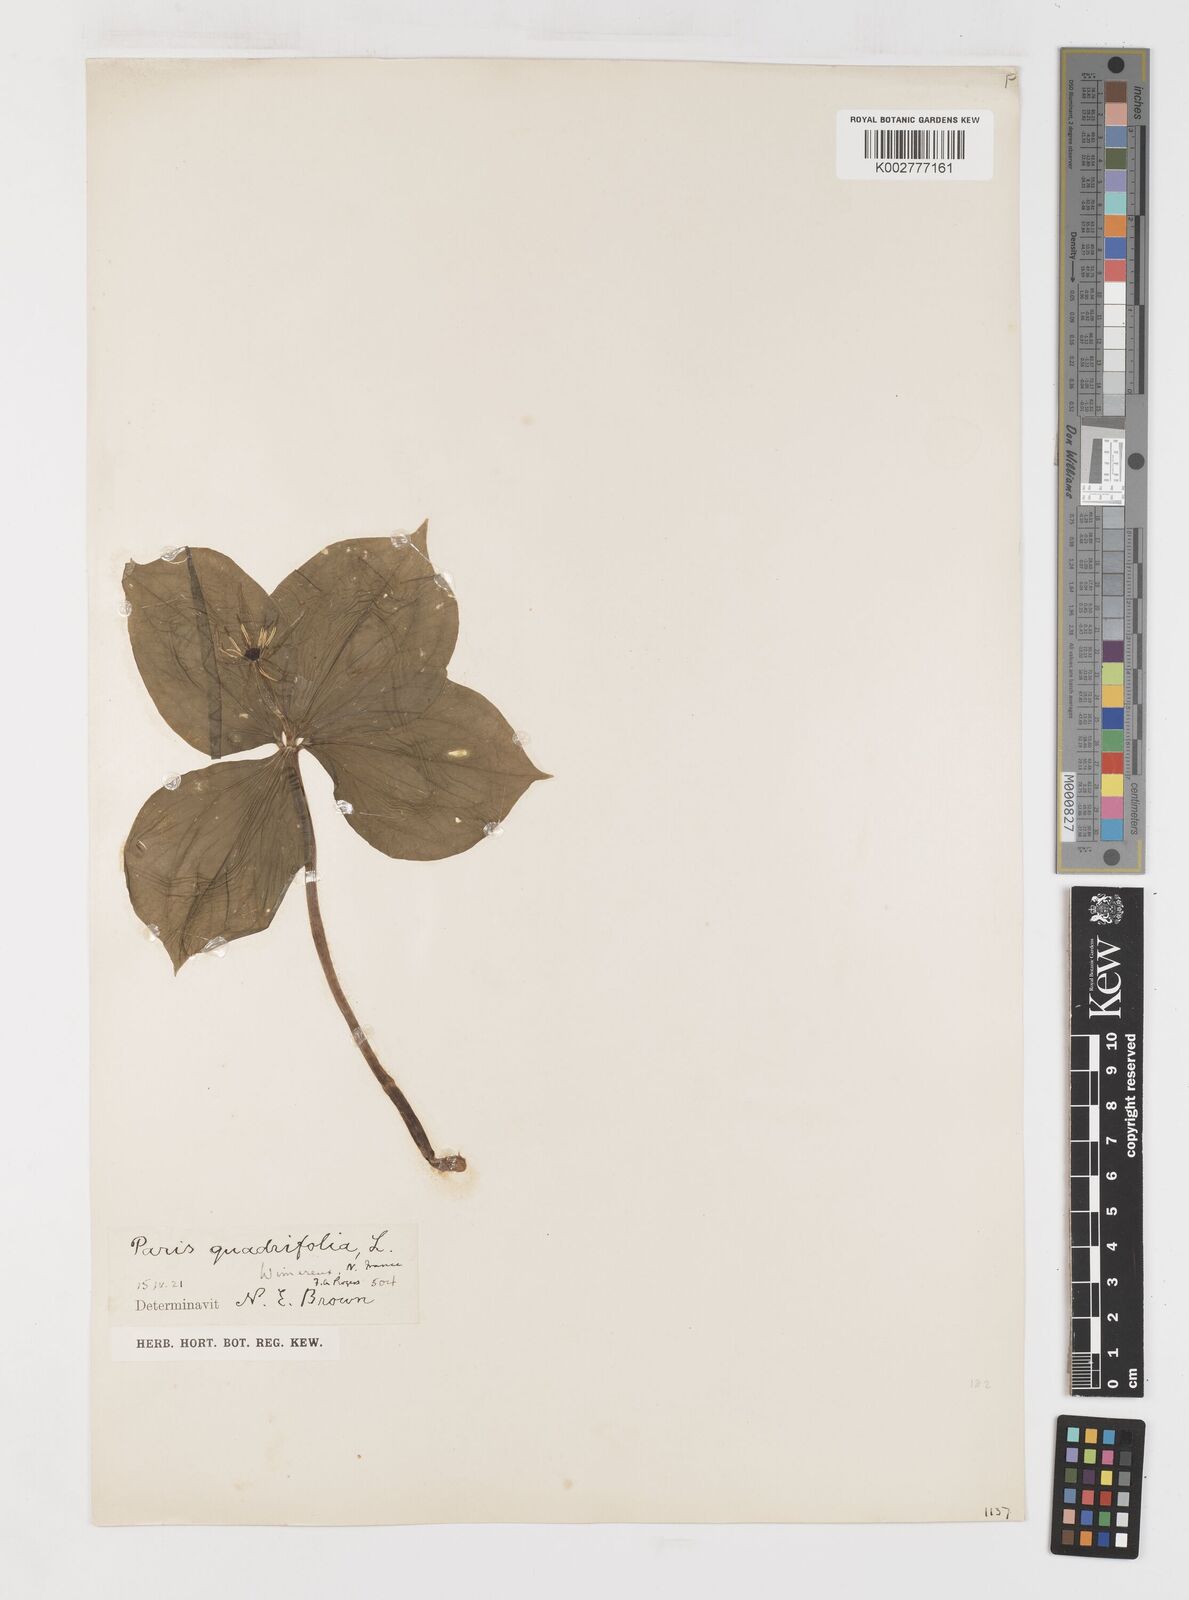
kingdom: Plantae
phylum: Tracheophyta
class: Liliopsida
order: Liliales
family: Melanthiaceae
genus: Paris
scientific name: Paris quadrifolia
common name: Herb-paris
